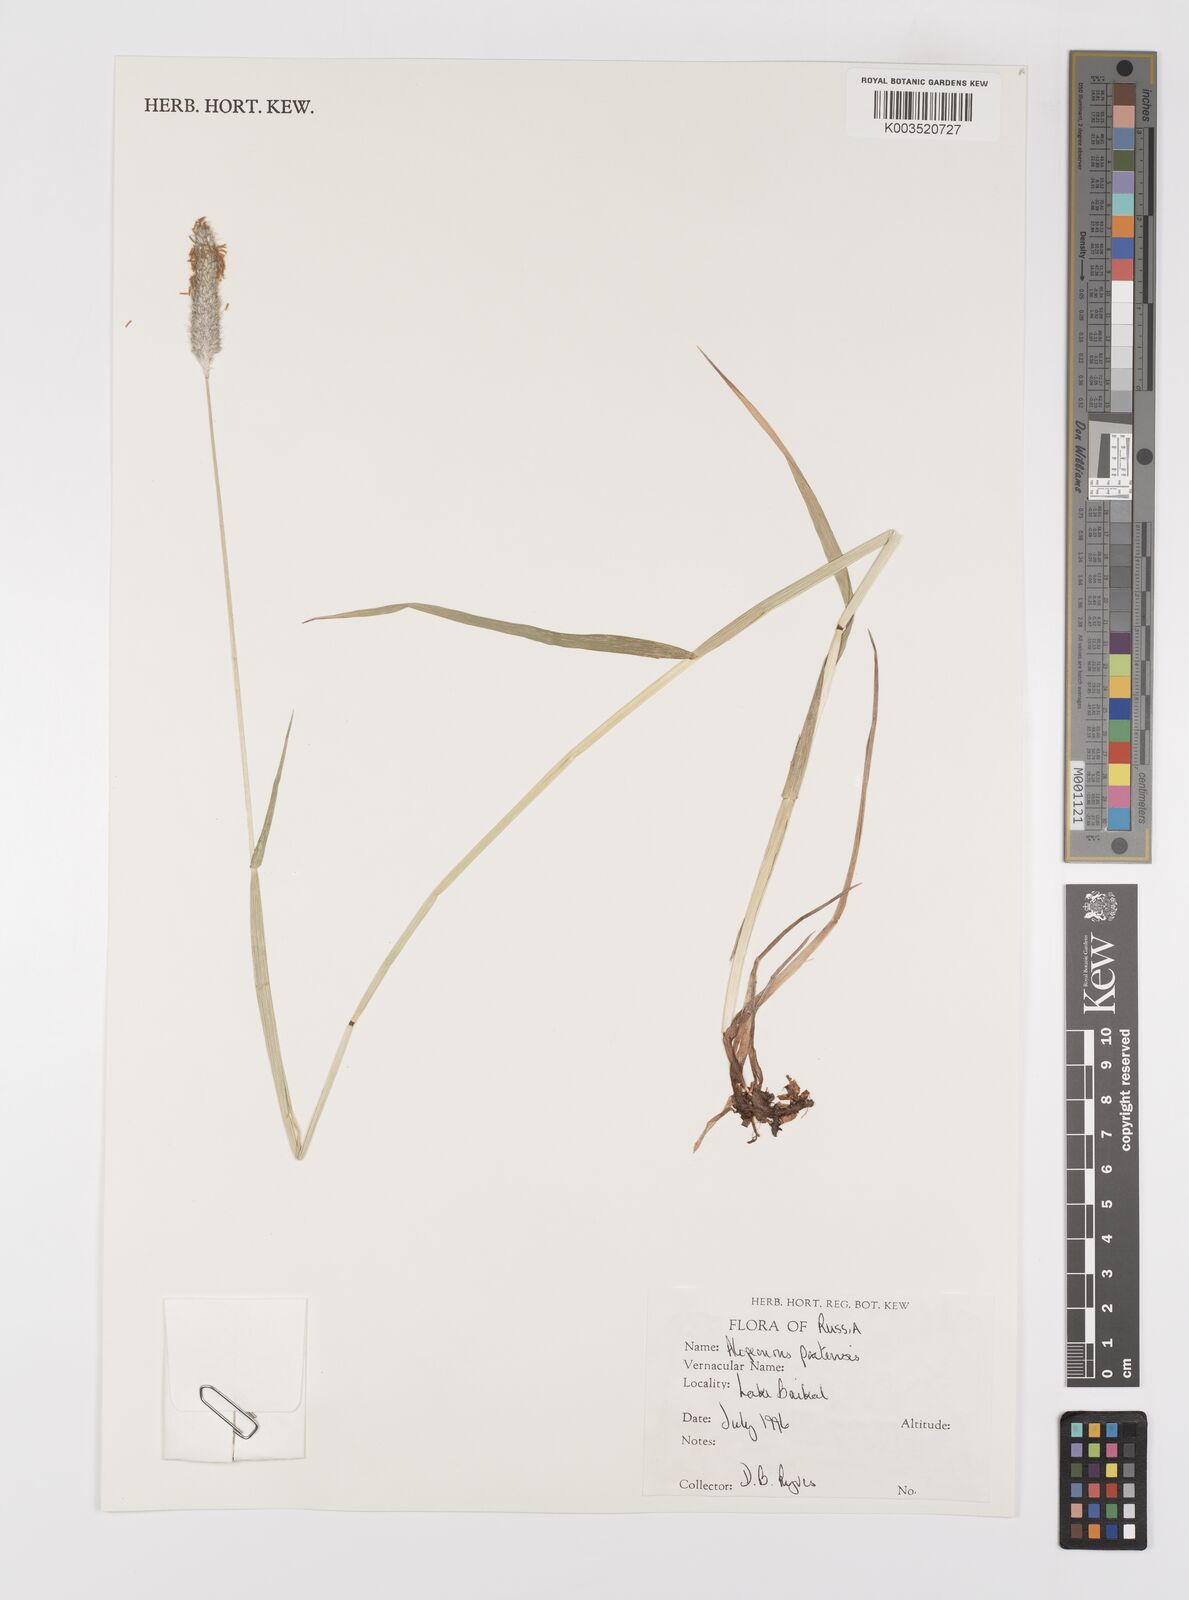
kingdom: Plantae
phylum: Tracheophyta
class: Liliopsida
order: Poales
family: Poaceae
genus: Alopecurus
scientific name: Alopecurus pratensis
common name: Meadow foxtail
